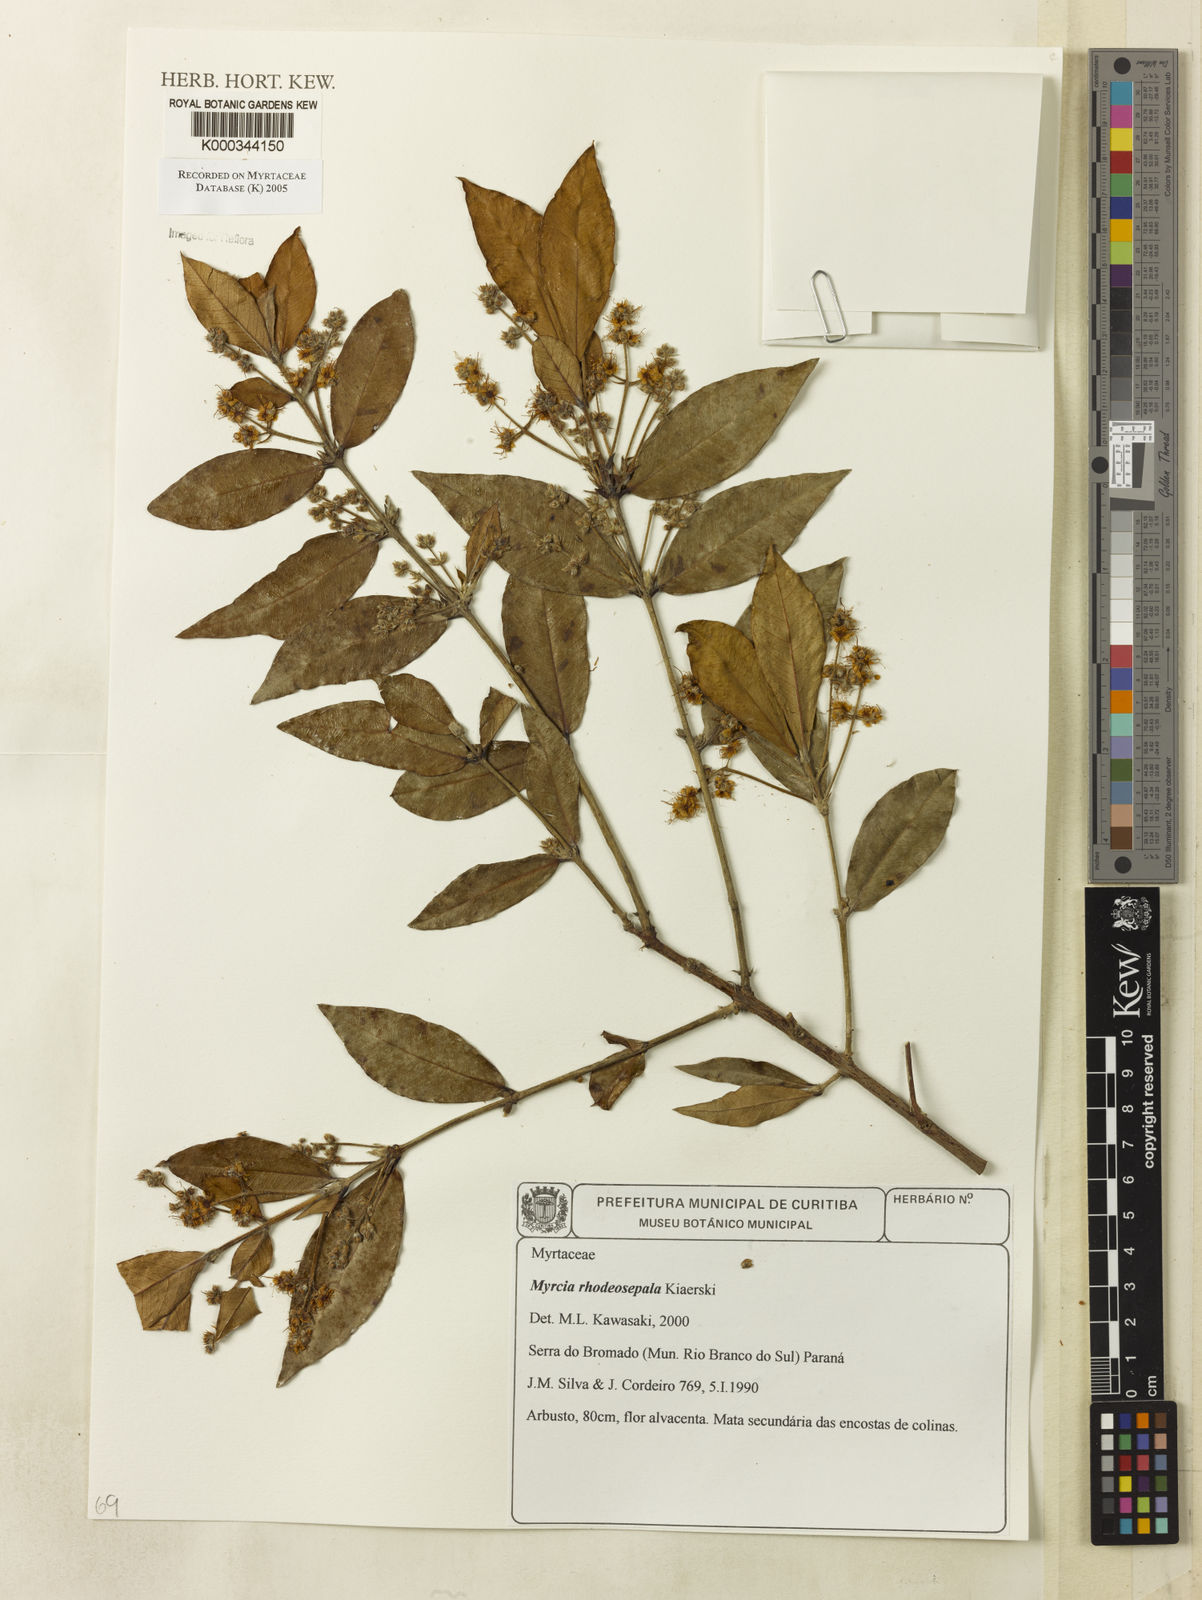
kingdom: Plantae
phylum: Tracheophyta
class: Magnoliopsida
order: Myrtales
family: Myrtaceae
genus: Myrcia
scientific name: Myrcia tomentosa
